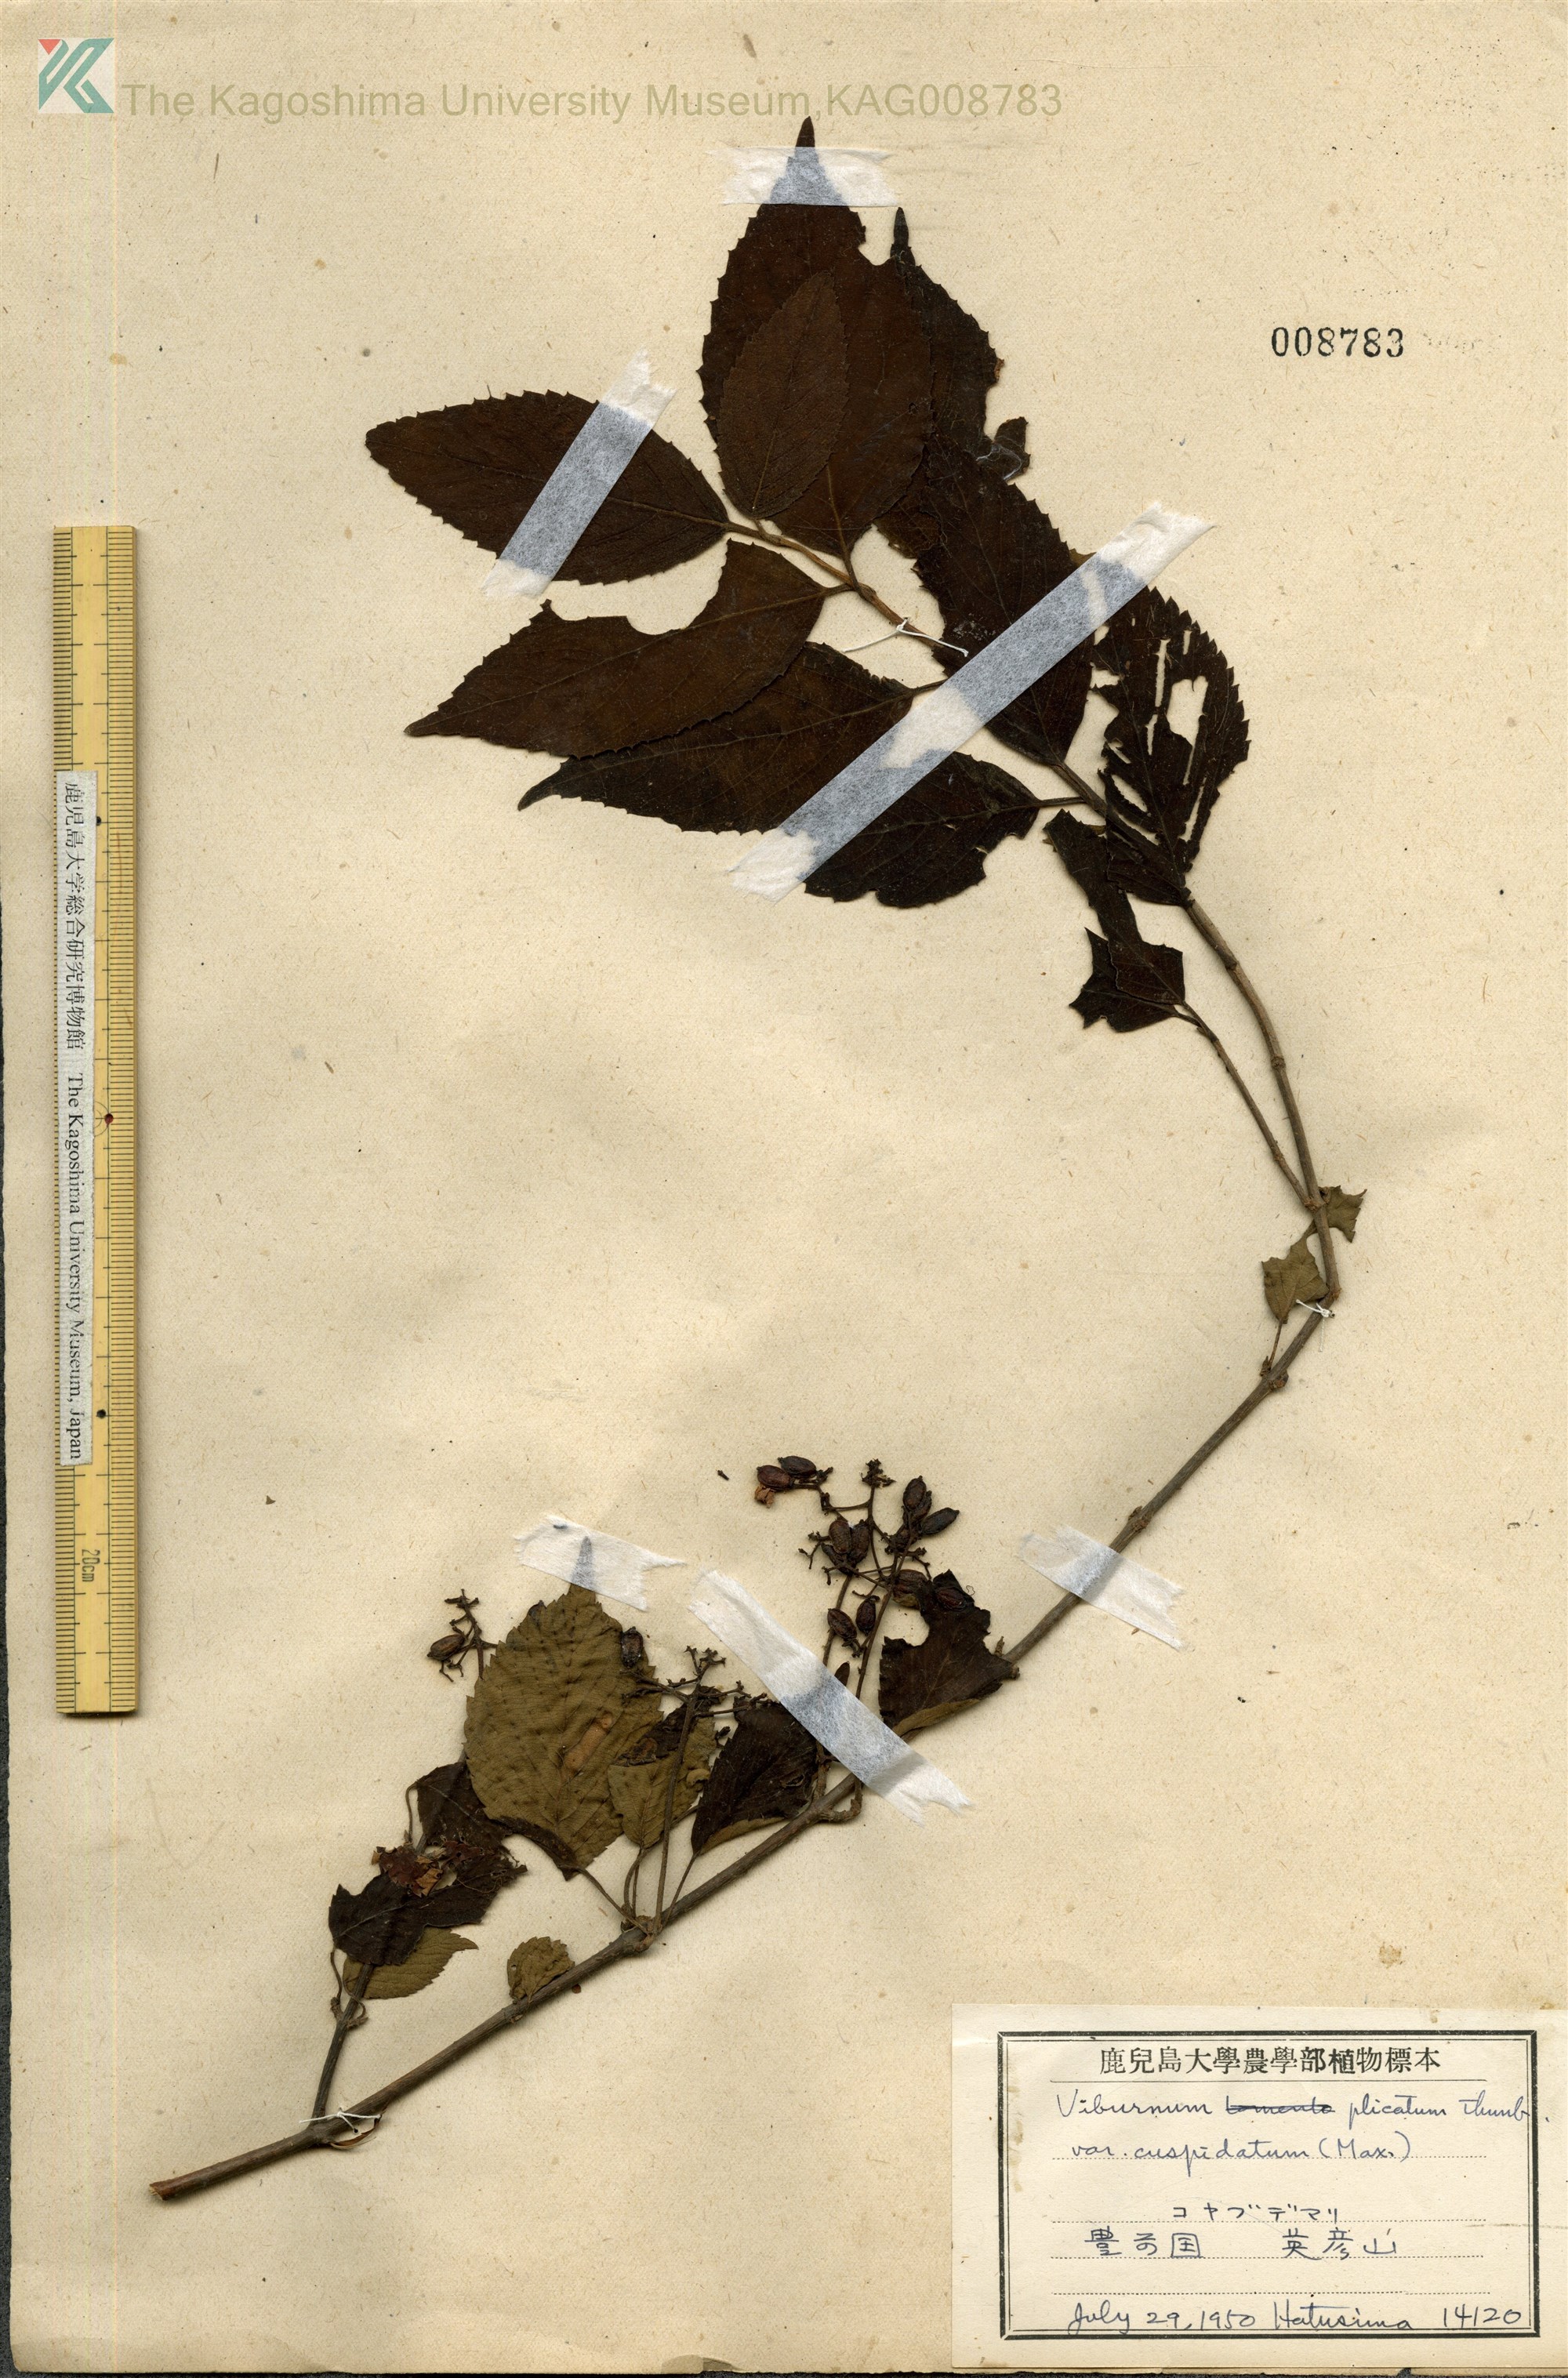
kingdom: Plantae
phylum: Tracheophyta
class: Magnoliopsida
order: Dipsacales
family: Viburnaceae
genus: Viburnum
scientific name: Viburnum plicatum
